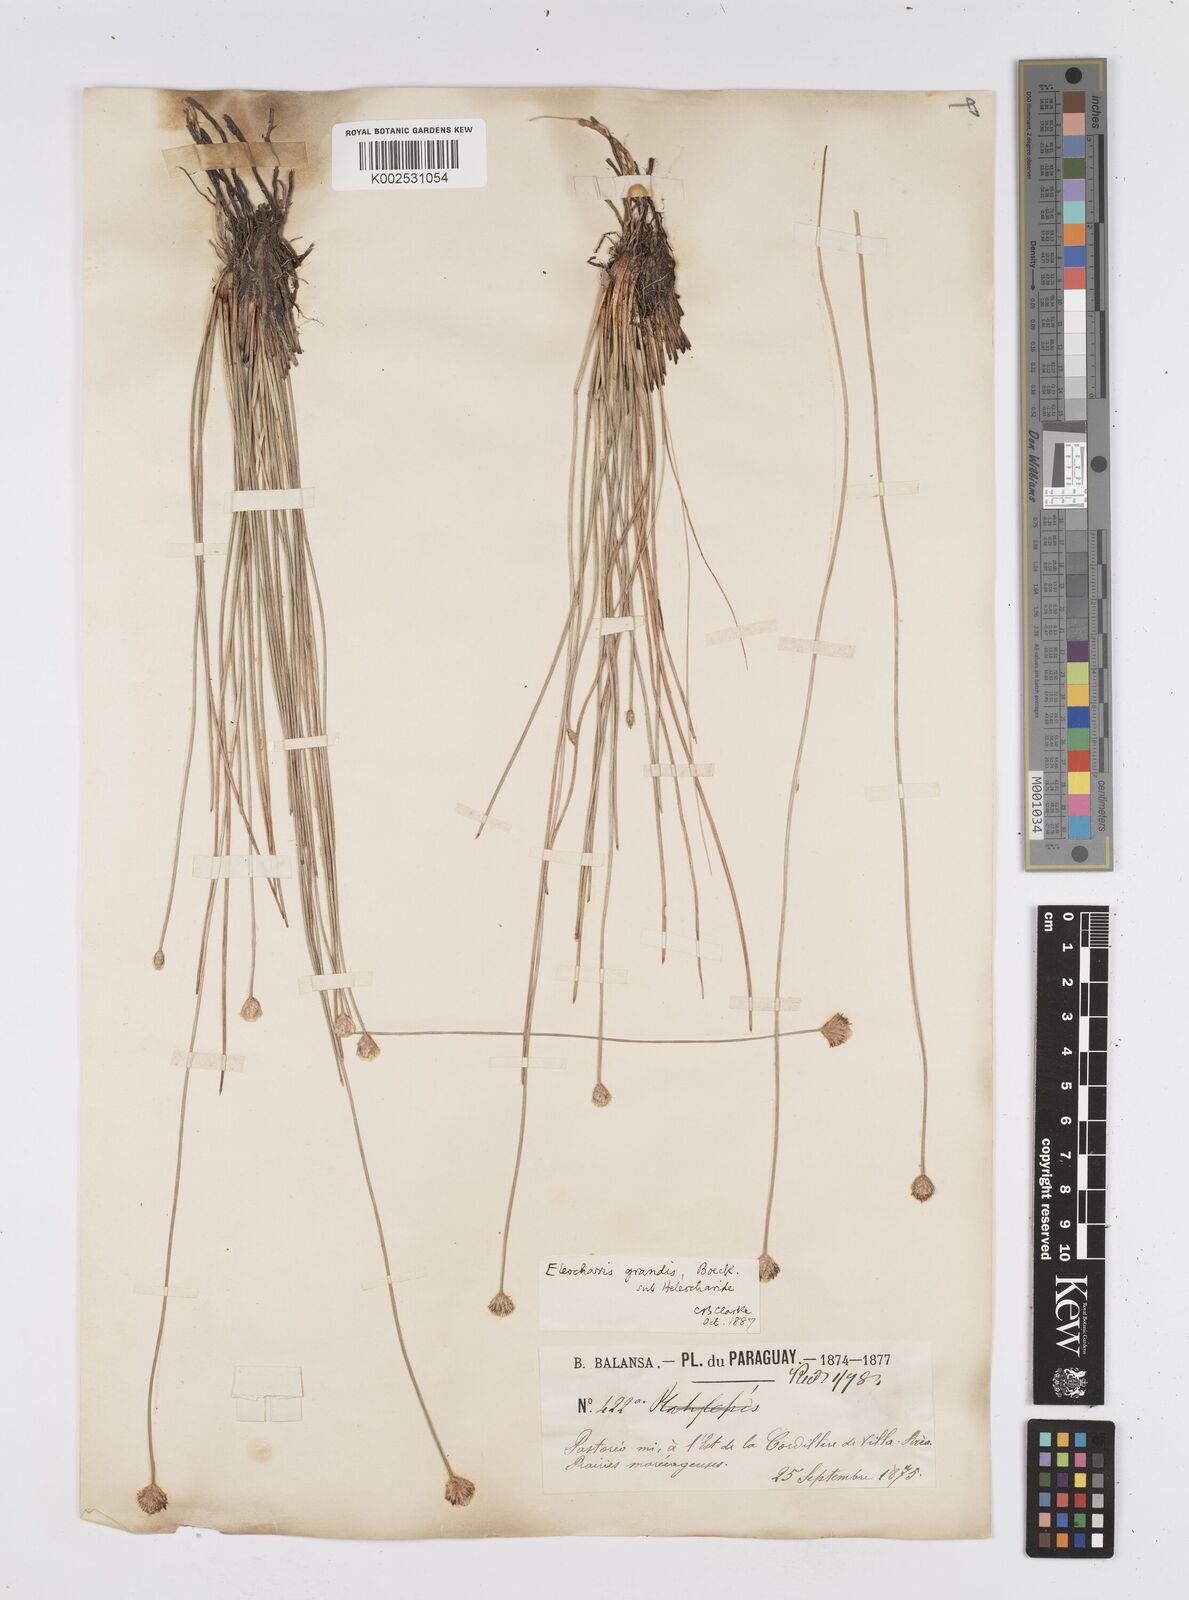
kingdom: Plantae
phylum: Tracheophyta
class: Liliopsida
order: Poales
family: Cyperaceae
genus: Eleocharis
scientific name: Eleocharis nudipes
